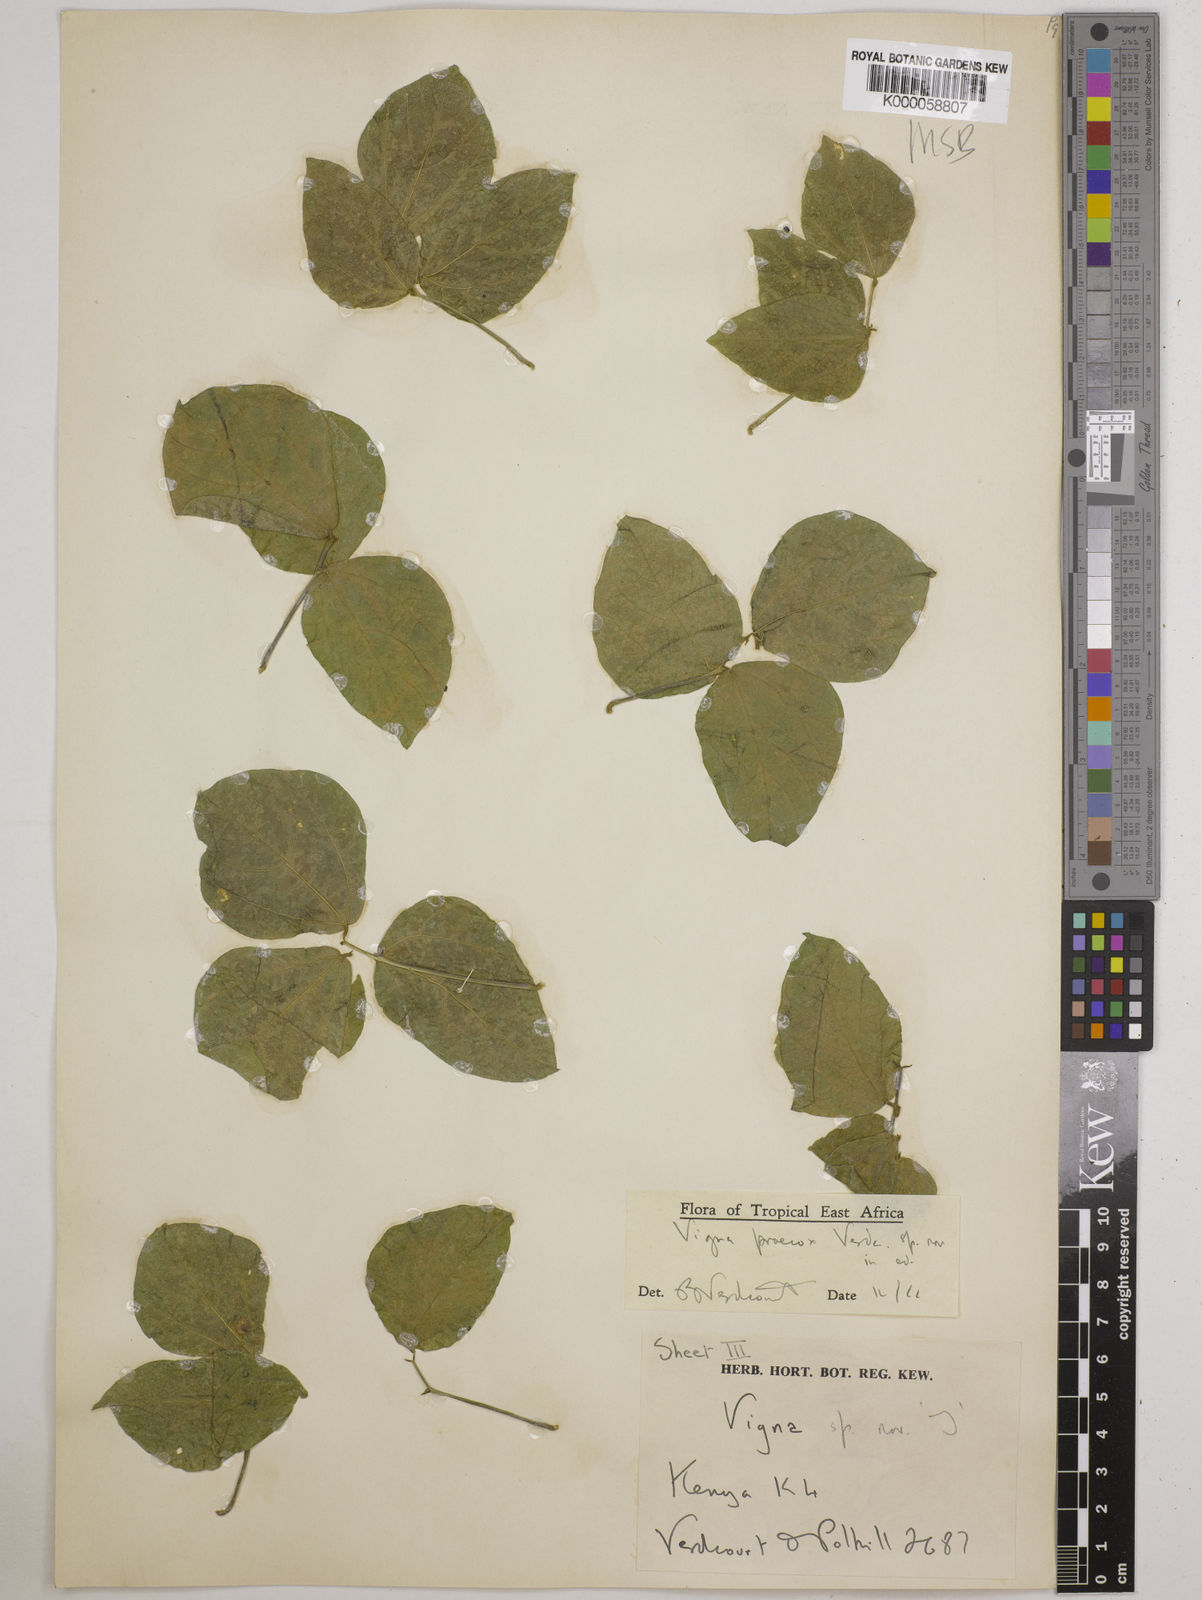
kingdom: Plantae
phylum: Tracheophyta
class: Magnoliopsida
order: Fabales
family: Fabaceae
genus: Wajira
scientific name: Wajira praecox
